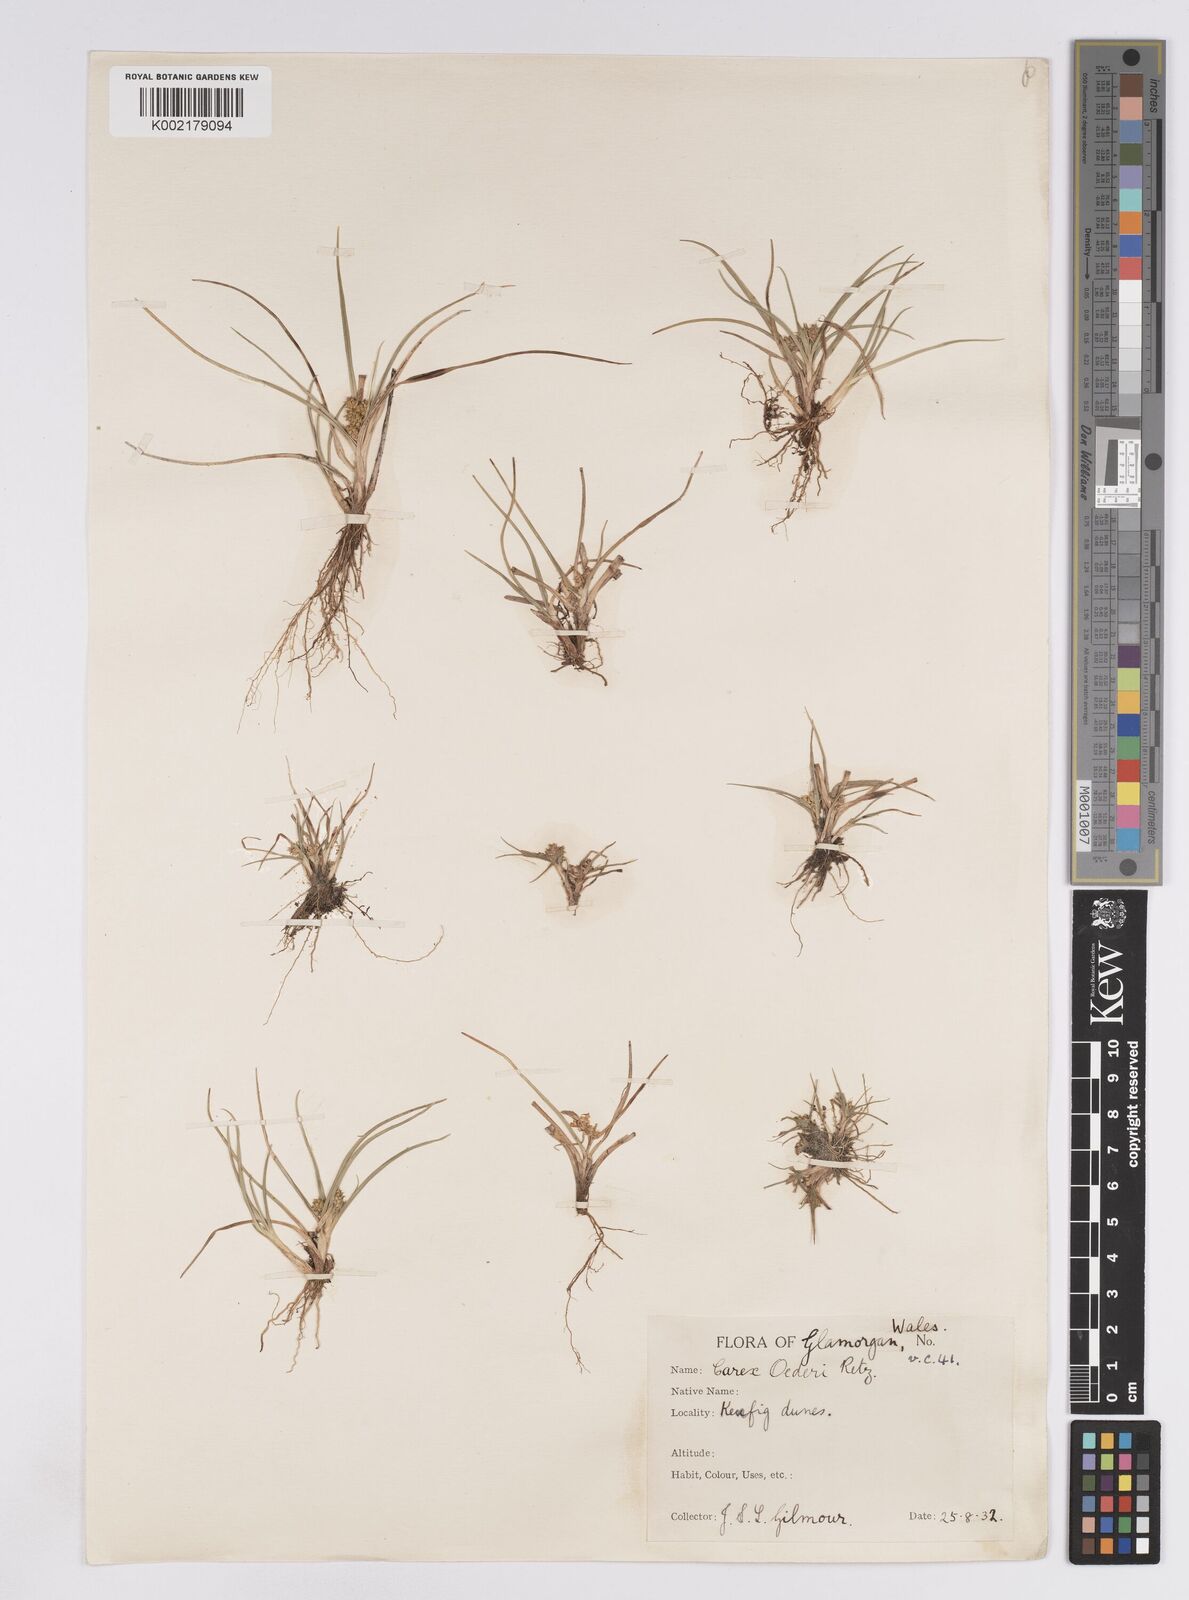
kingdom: Plantae
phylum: Tracheophyta
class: Liliopsida
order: Poales
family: Cyperaceae
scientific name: Cyperaceae
